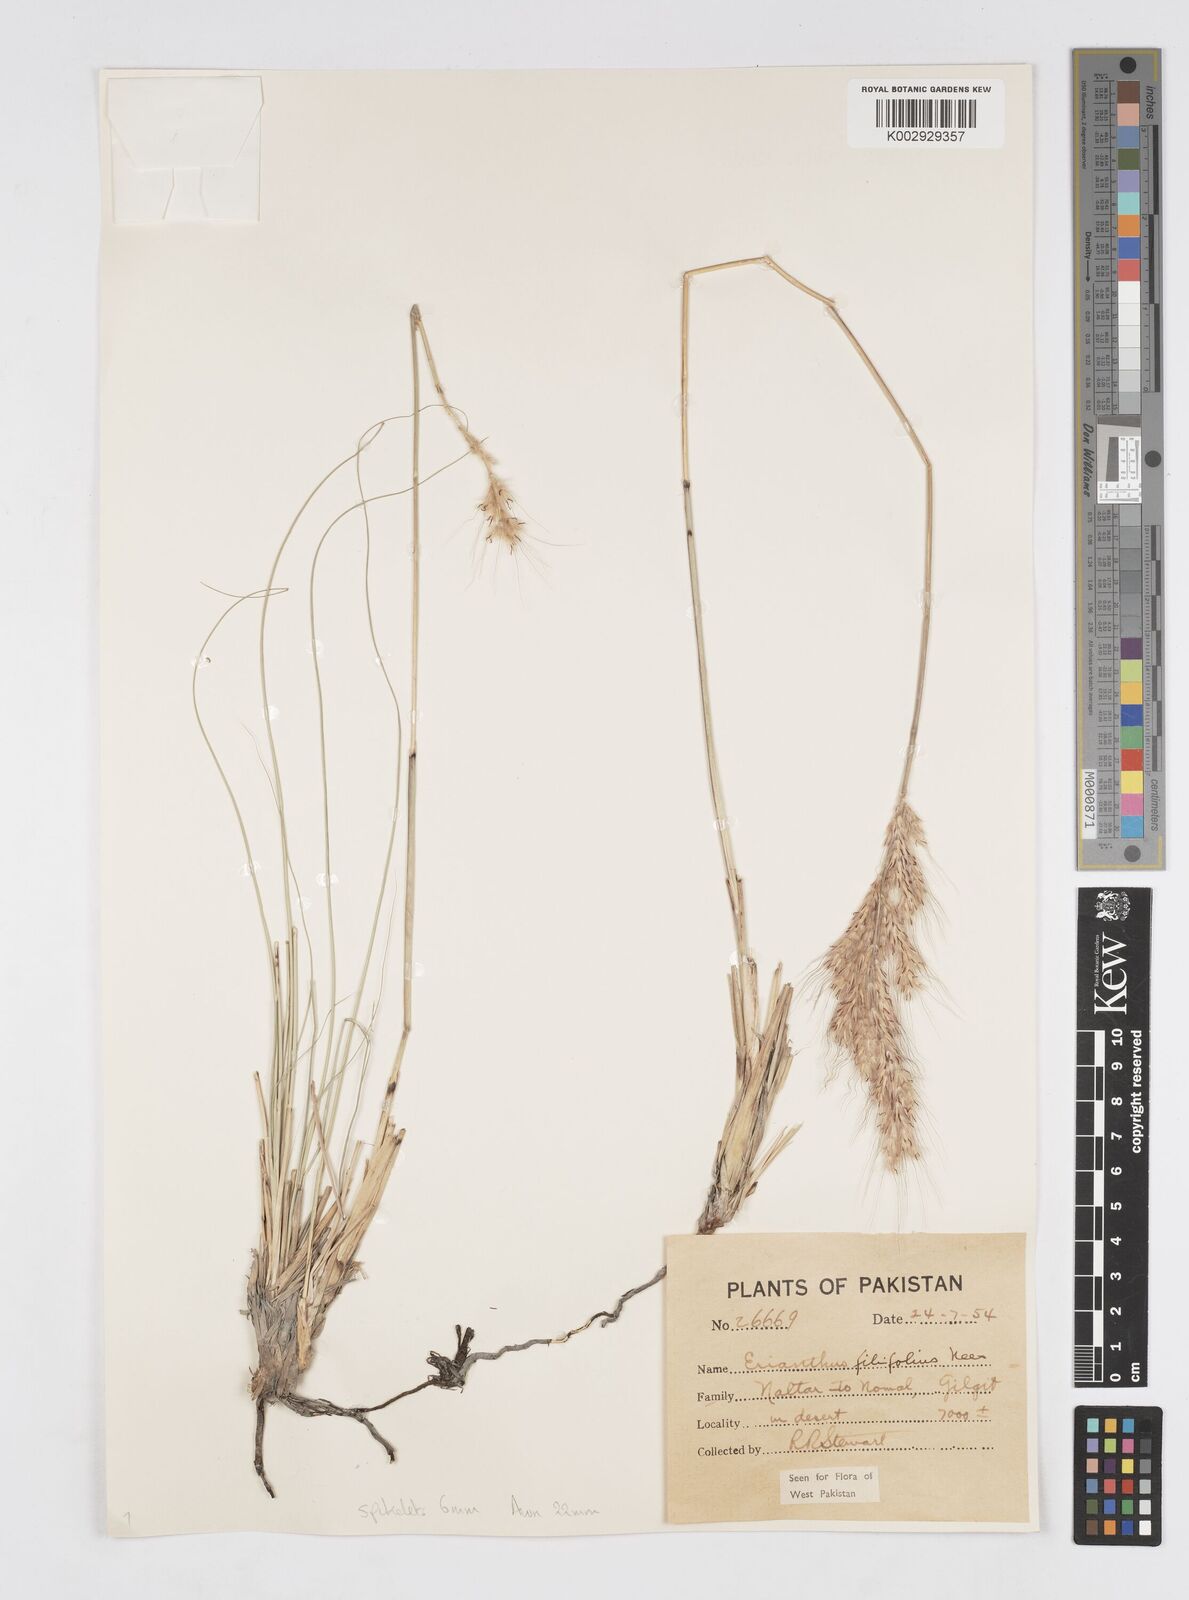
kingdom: Plantae
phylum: Tracheophyta
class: Liliopsida
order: Poales
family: Poaceae
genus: Saccharum
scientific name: Saccharum filifolium
